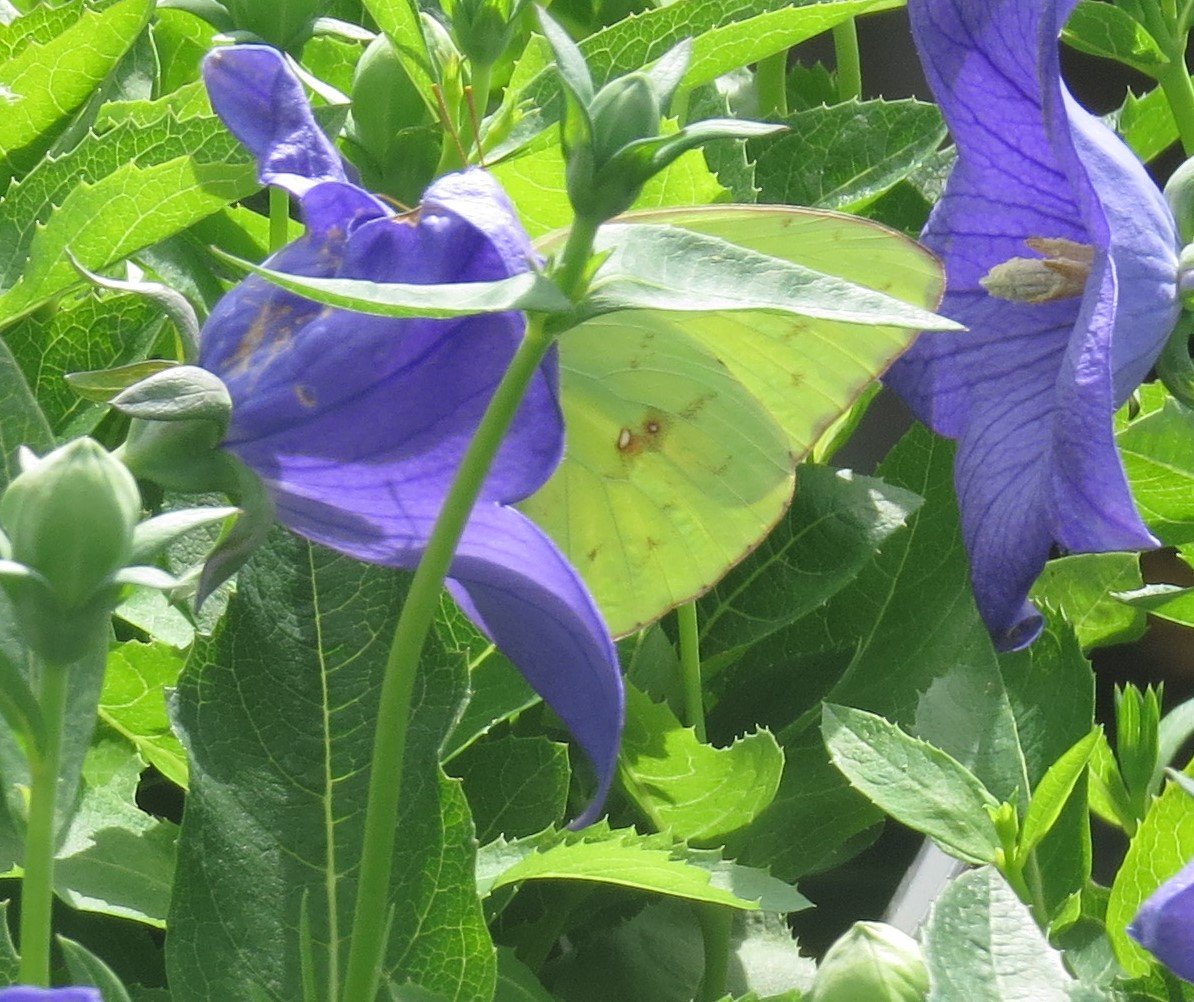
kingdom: Animalia
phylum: Arthropoda
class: Insecta
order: Lepidoptera
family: Pieridae
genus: Phoebis
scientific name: Phoebis sennae
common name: Cloudless Sulphur
